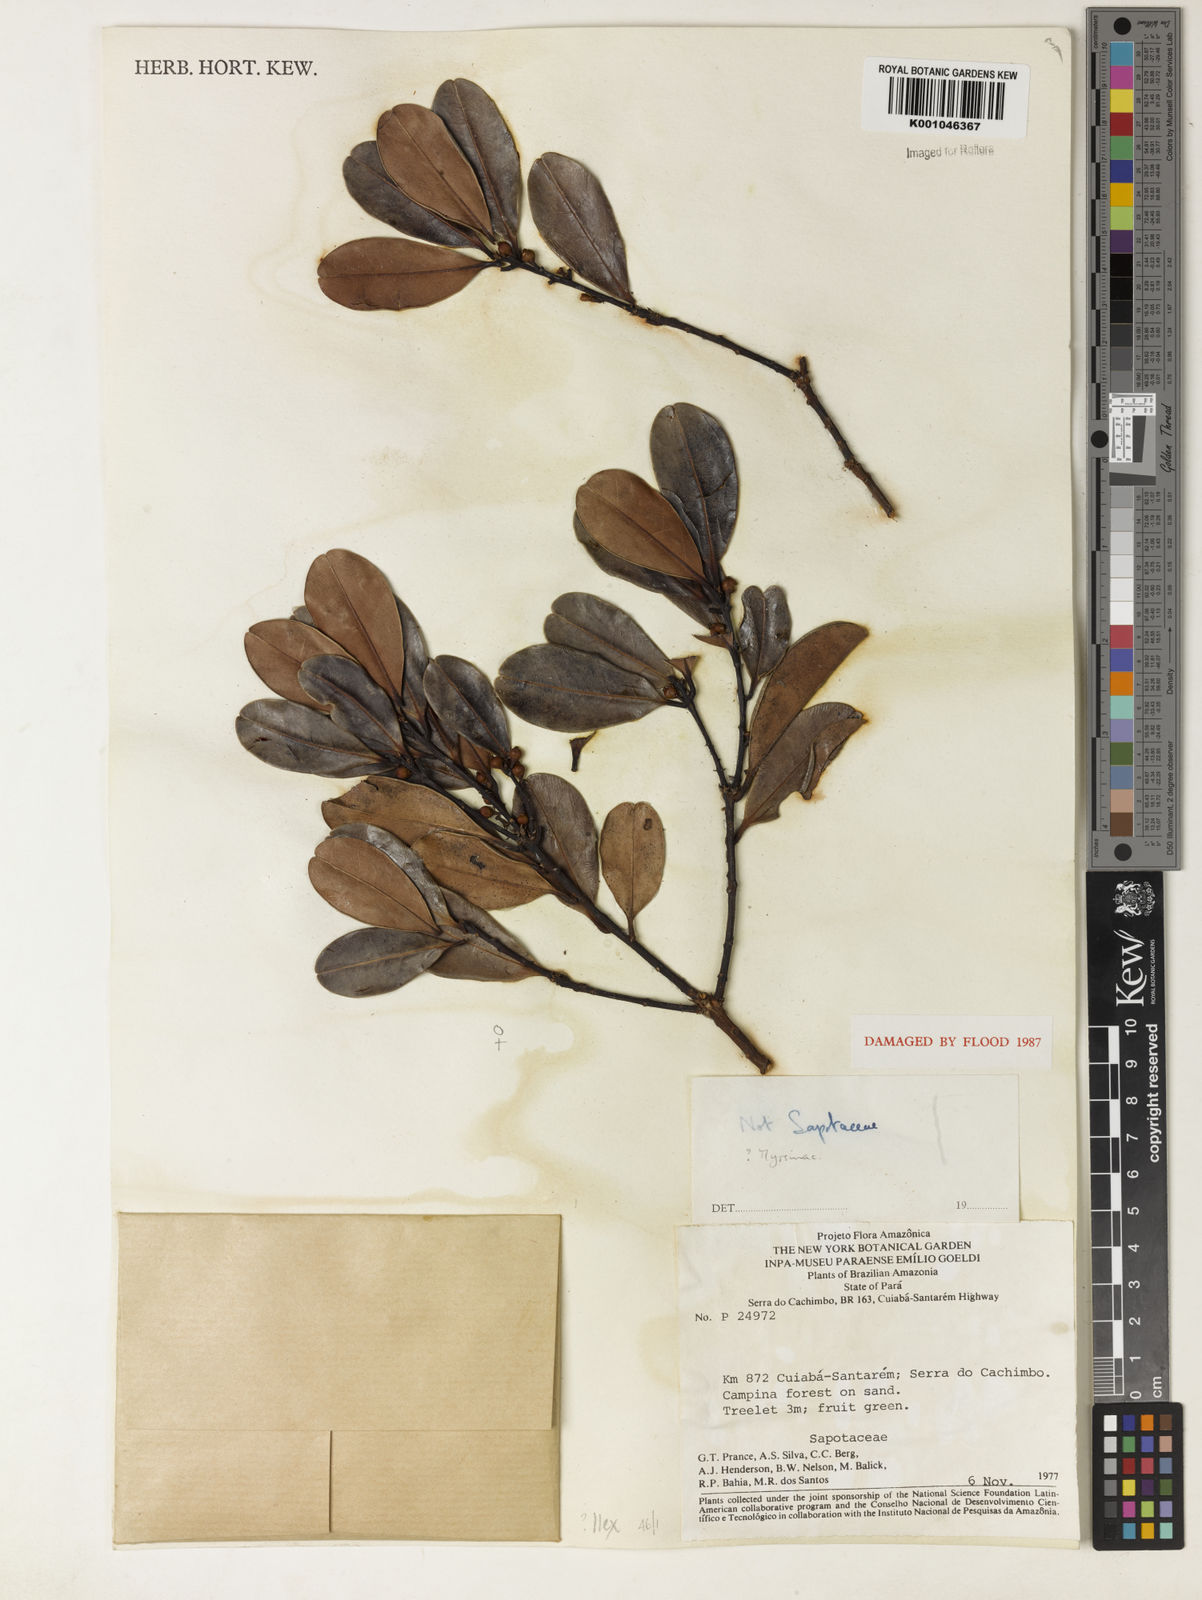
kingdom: Plantae
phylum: Tracheophyta
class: Magnoliopsida
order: Aquifoliales
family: Aquifoliaceae
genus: Ilex
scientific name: Ilex
